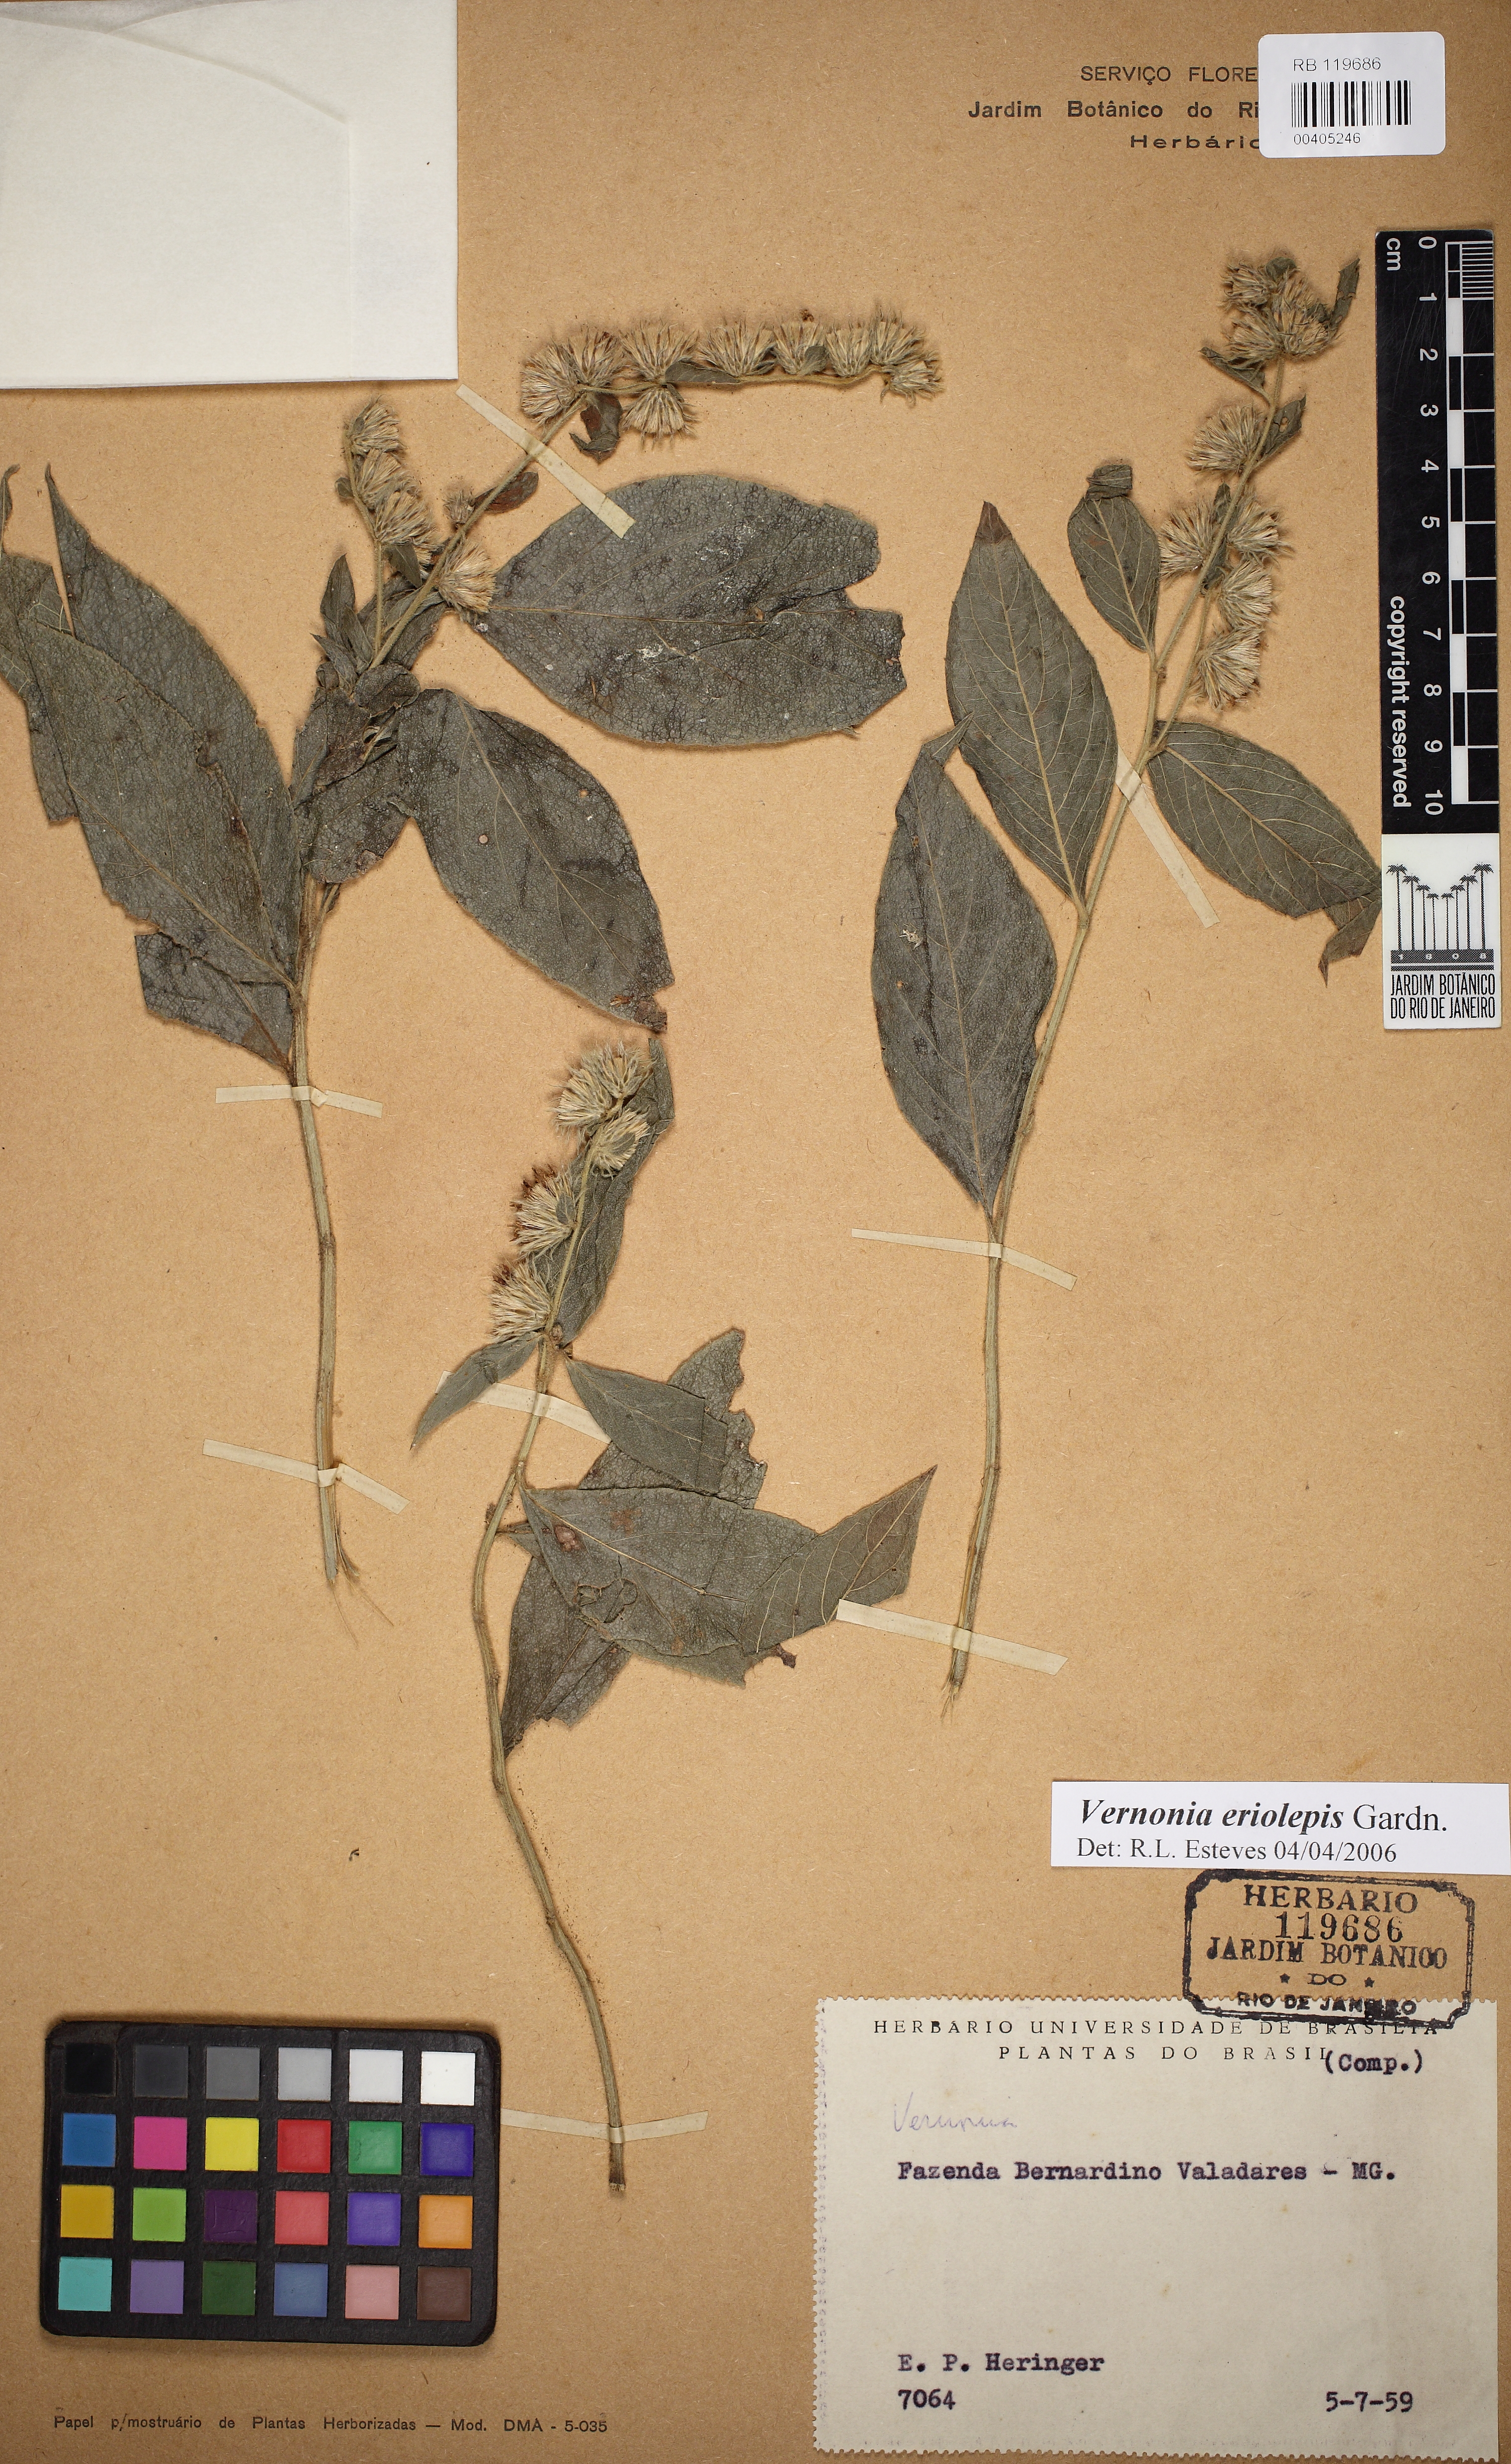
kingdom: Plantae
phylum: Tracheophyta
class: Magnoliopsida
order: Asterales
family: Asteraceae
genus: Lepidaploa
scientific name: Lepidaploa eriolepis
